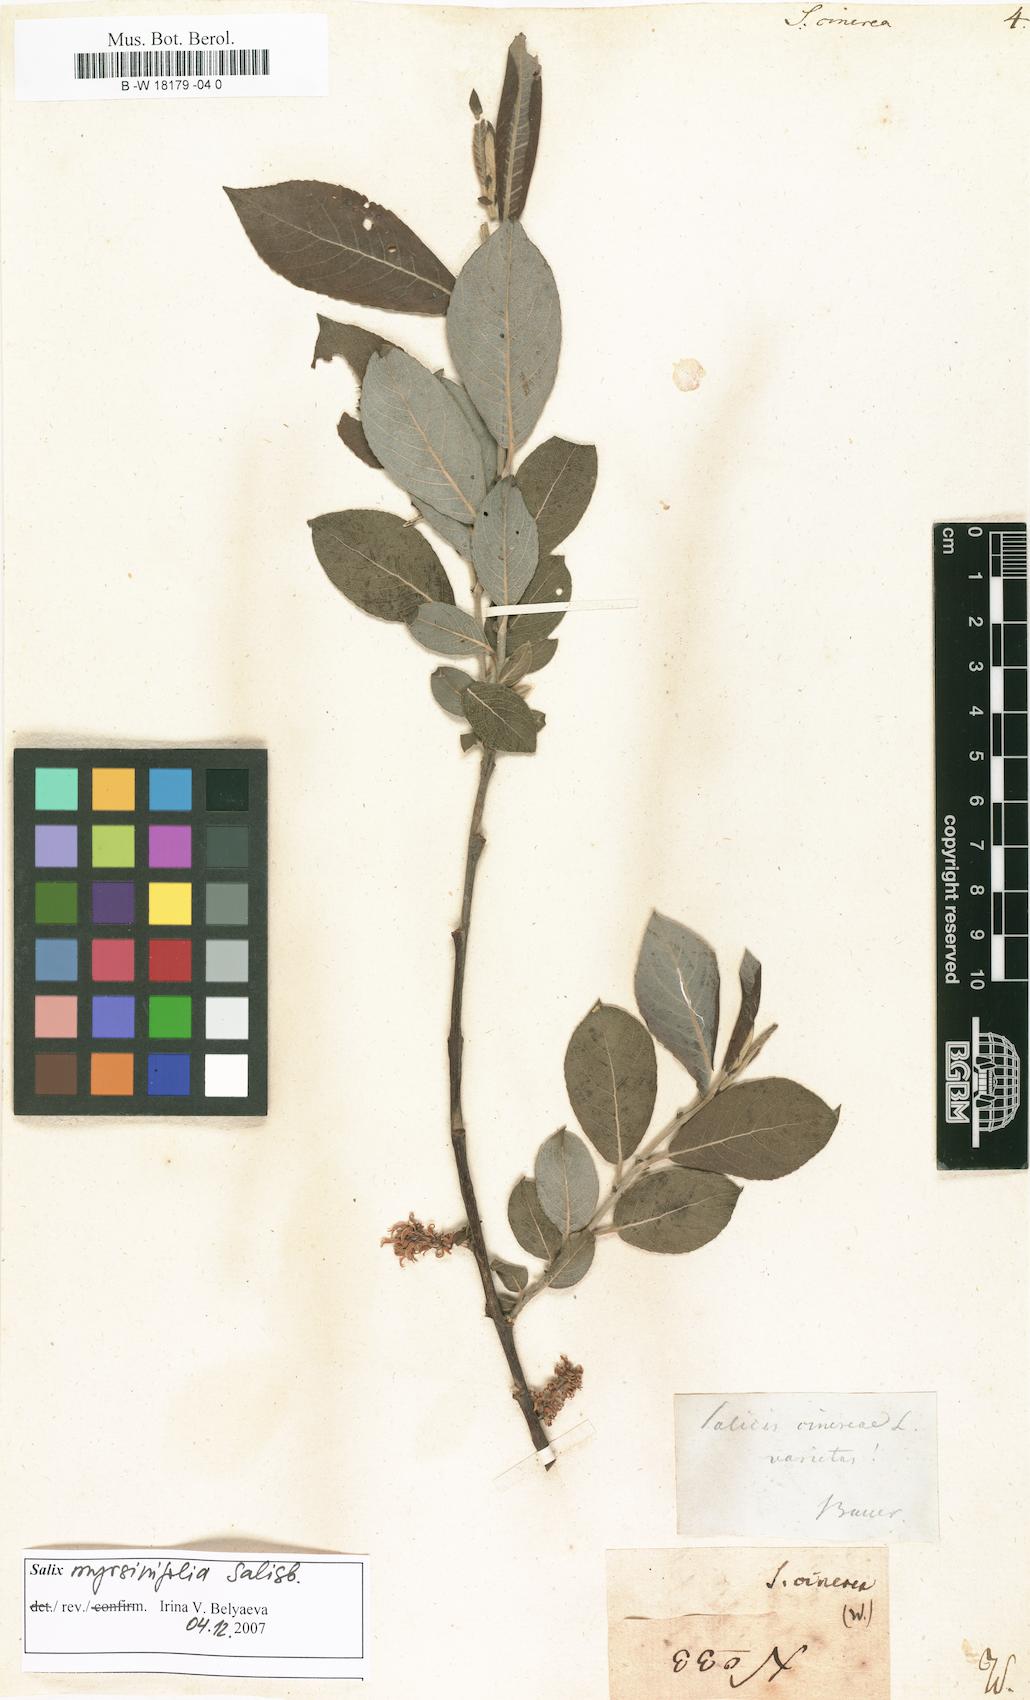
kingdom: Plantae
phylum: Tracheophyta
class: Magnoliopsida
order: Malpighiales
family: Salicaceae
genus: Salix
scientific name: Salix cinerea
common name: Common sallow
